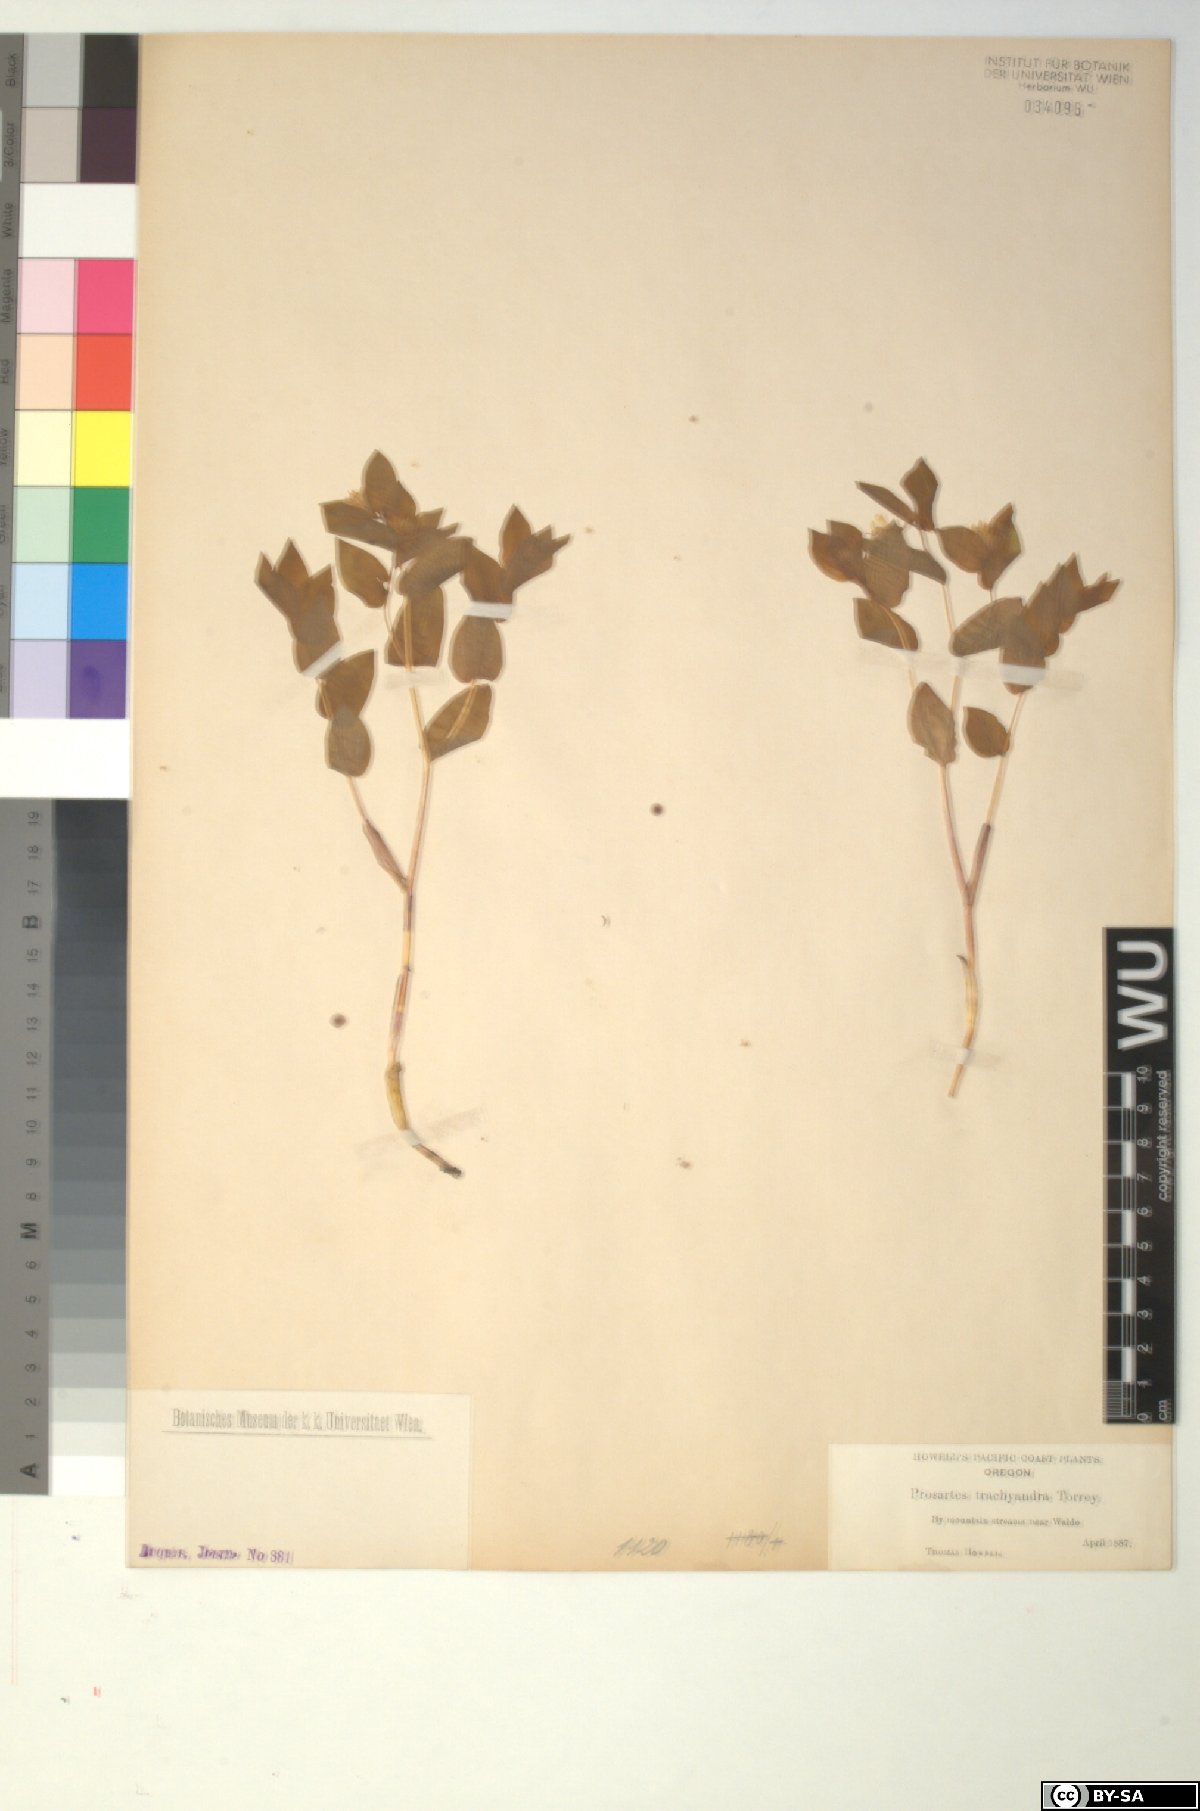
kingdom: Plantae
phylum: Tracheophyta
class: Liliopsida
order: Liliales
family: Liliaceae
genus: Prosartes
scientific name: Prosartes hookeri
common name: Fairy-bells
